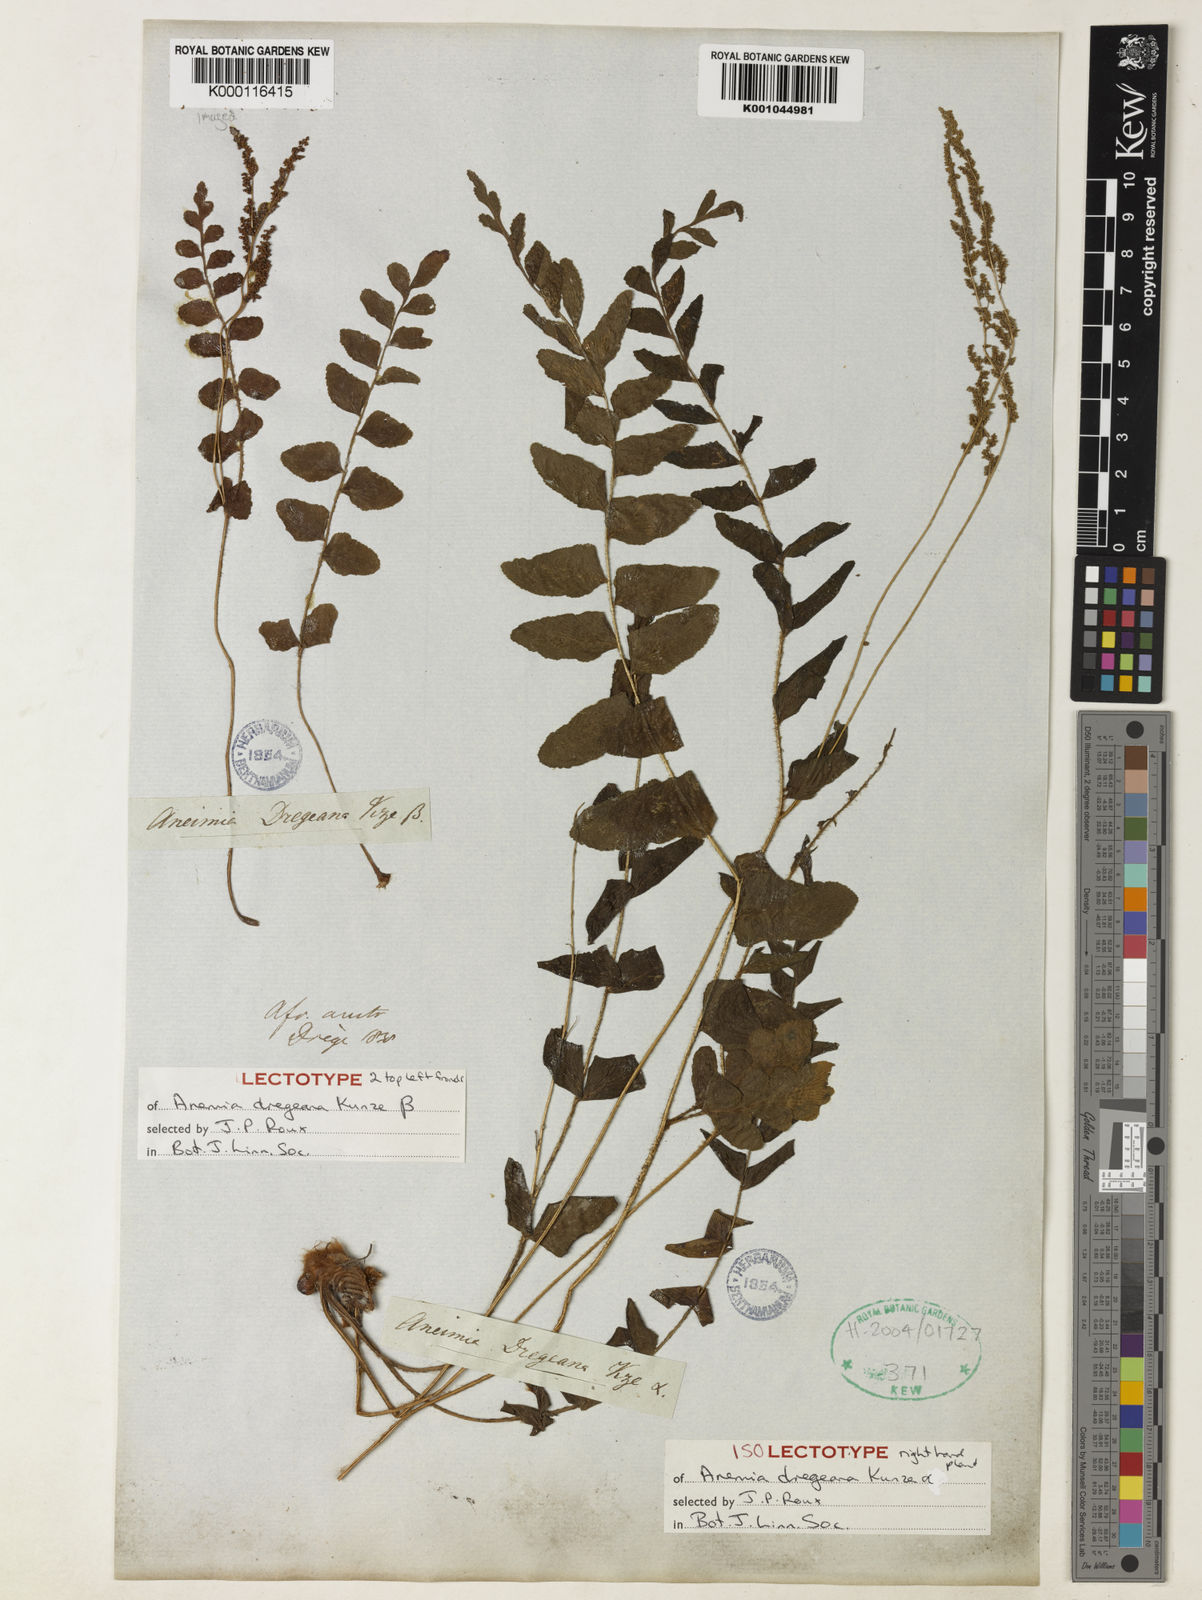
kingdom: Plantae
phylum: Tracheophyta
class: Polypodiopsida
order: Schizaeales
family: Anemiaceae
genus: Anemia
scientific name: Anemia dregeana
